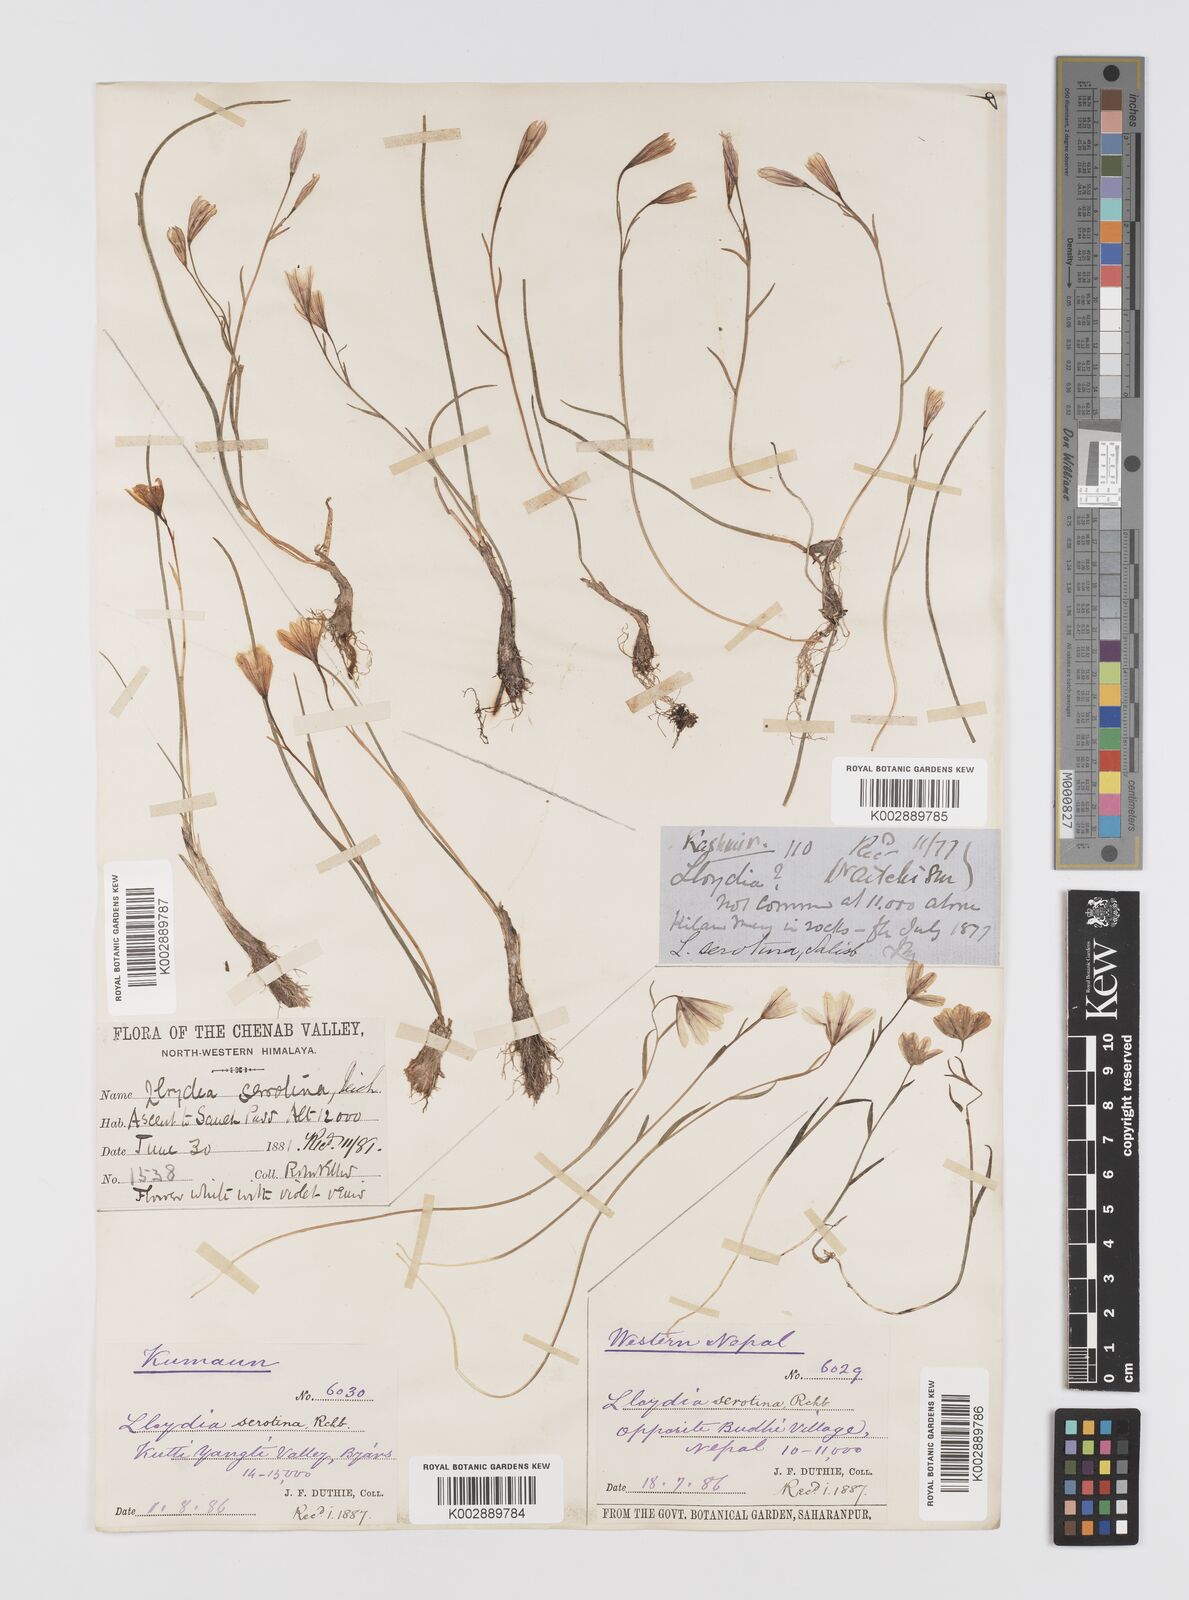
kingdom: Plantae
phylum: Tracheophyta
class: Liliopsida
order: Liliales
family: Liliaceae
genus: Gagea
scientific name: Gagea serotina
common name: Snowdon lily
